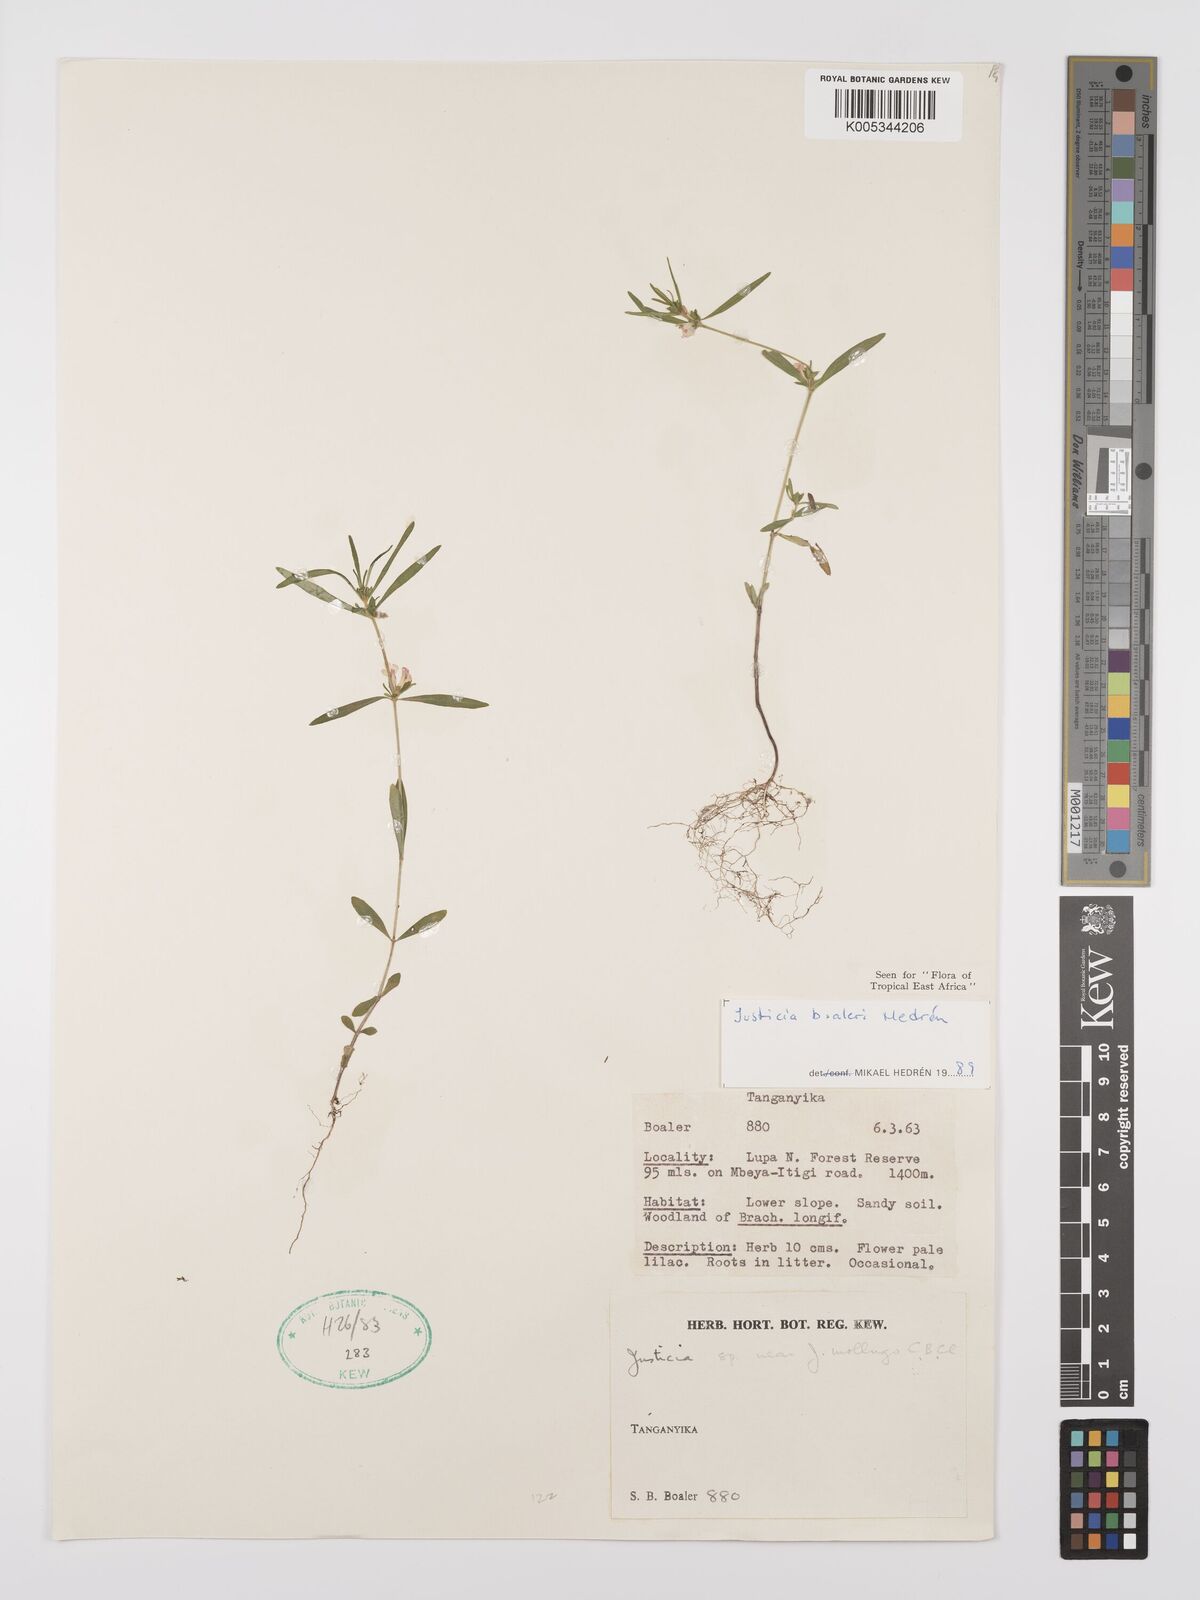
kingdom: Plantae
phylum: Tracheophyta
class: Magnoliopsida
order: Lamiales
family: Acanthaceae
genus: Justicia
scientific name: Justicia boaleri
